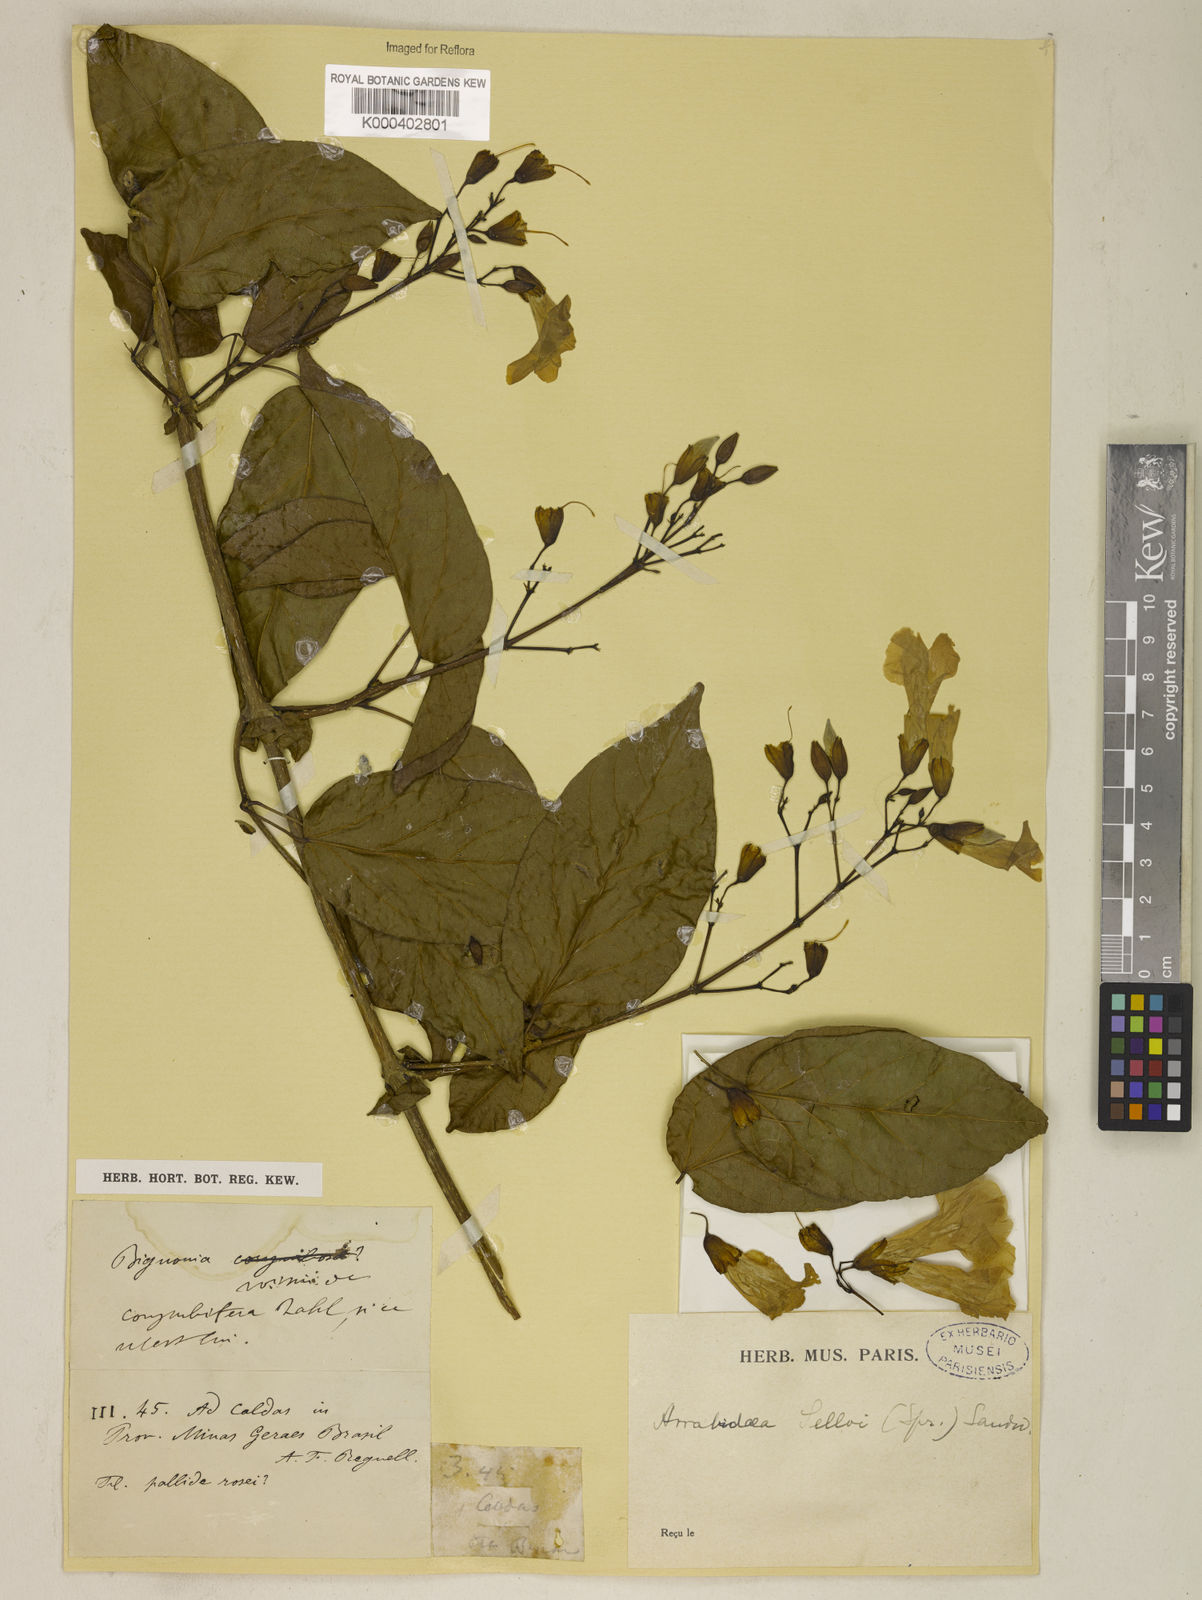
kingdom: Plantae
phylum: Tracheophyta
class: Magnoliopsida
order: Lamiales
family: Bignoniaceae
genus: Tanaecium
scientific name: Tanaecium selloi
